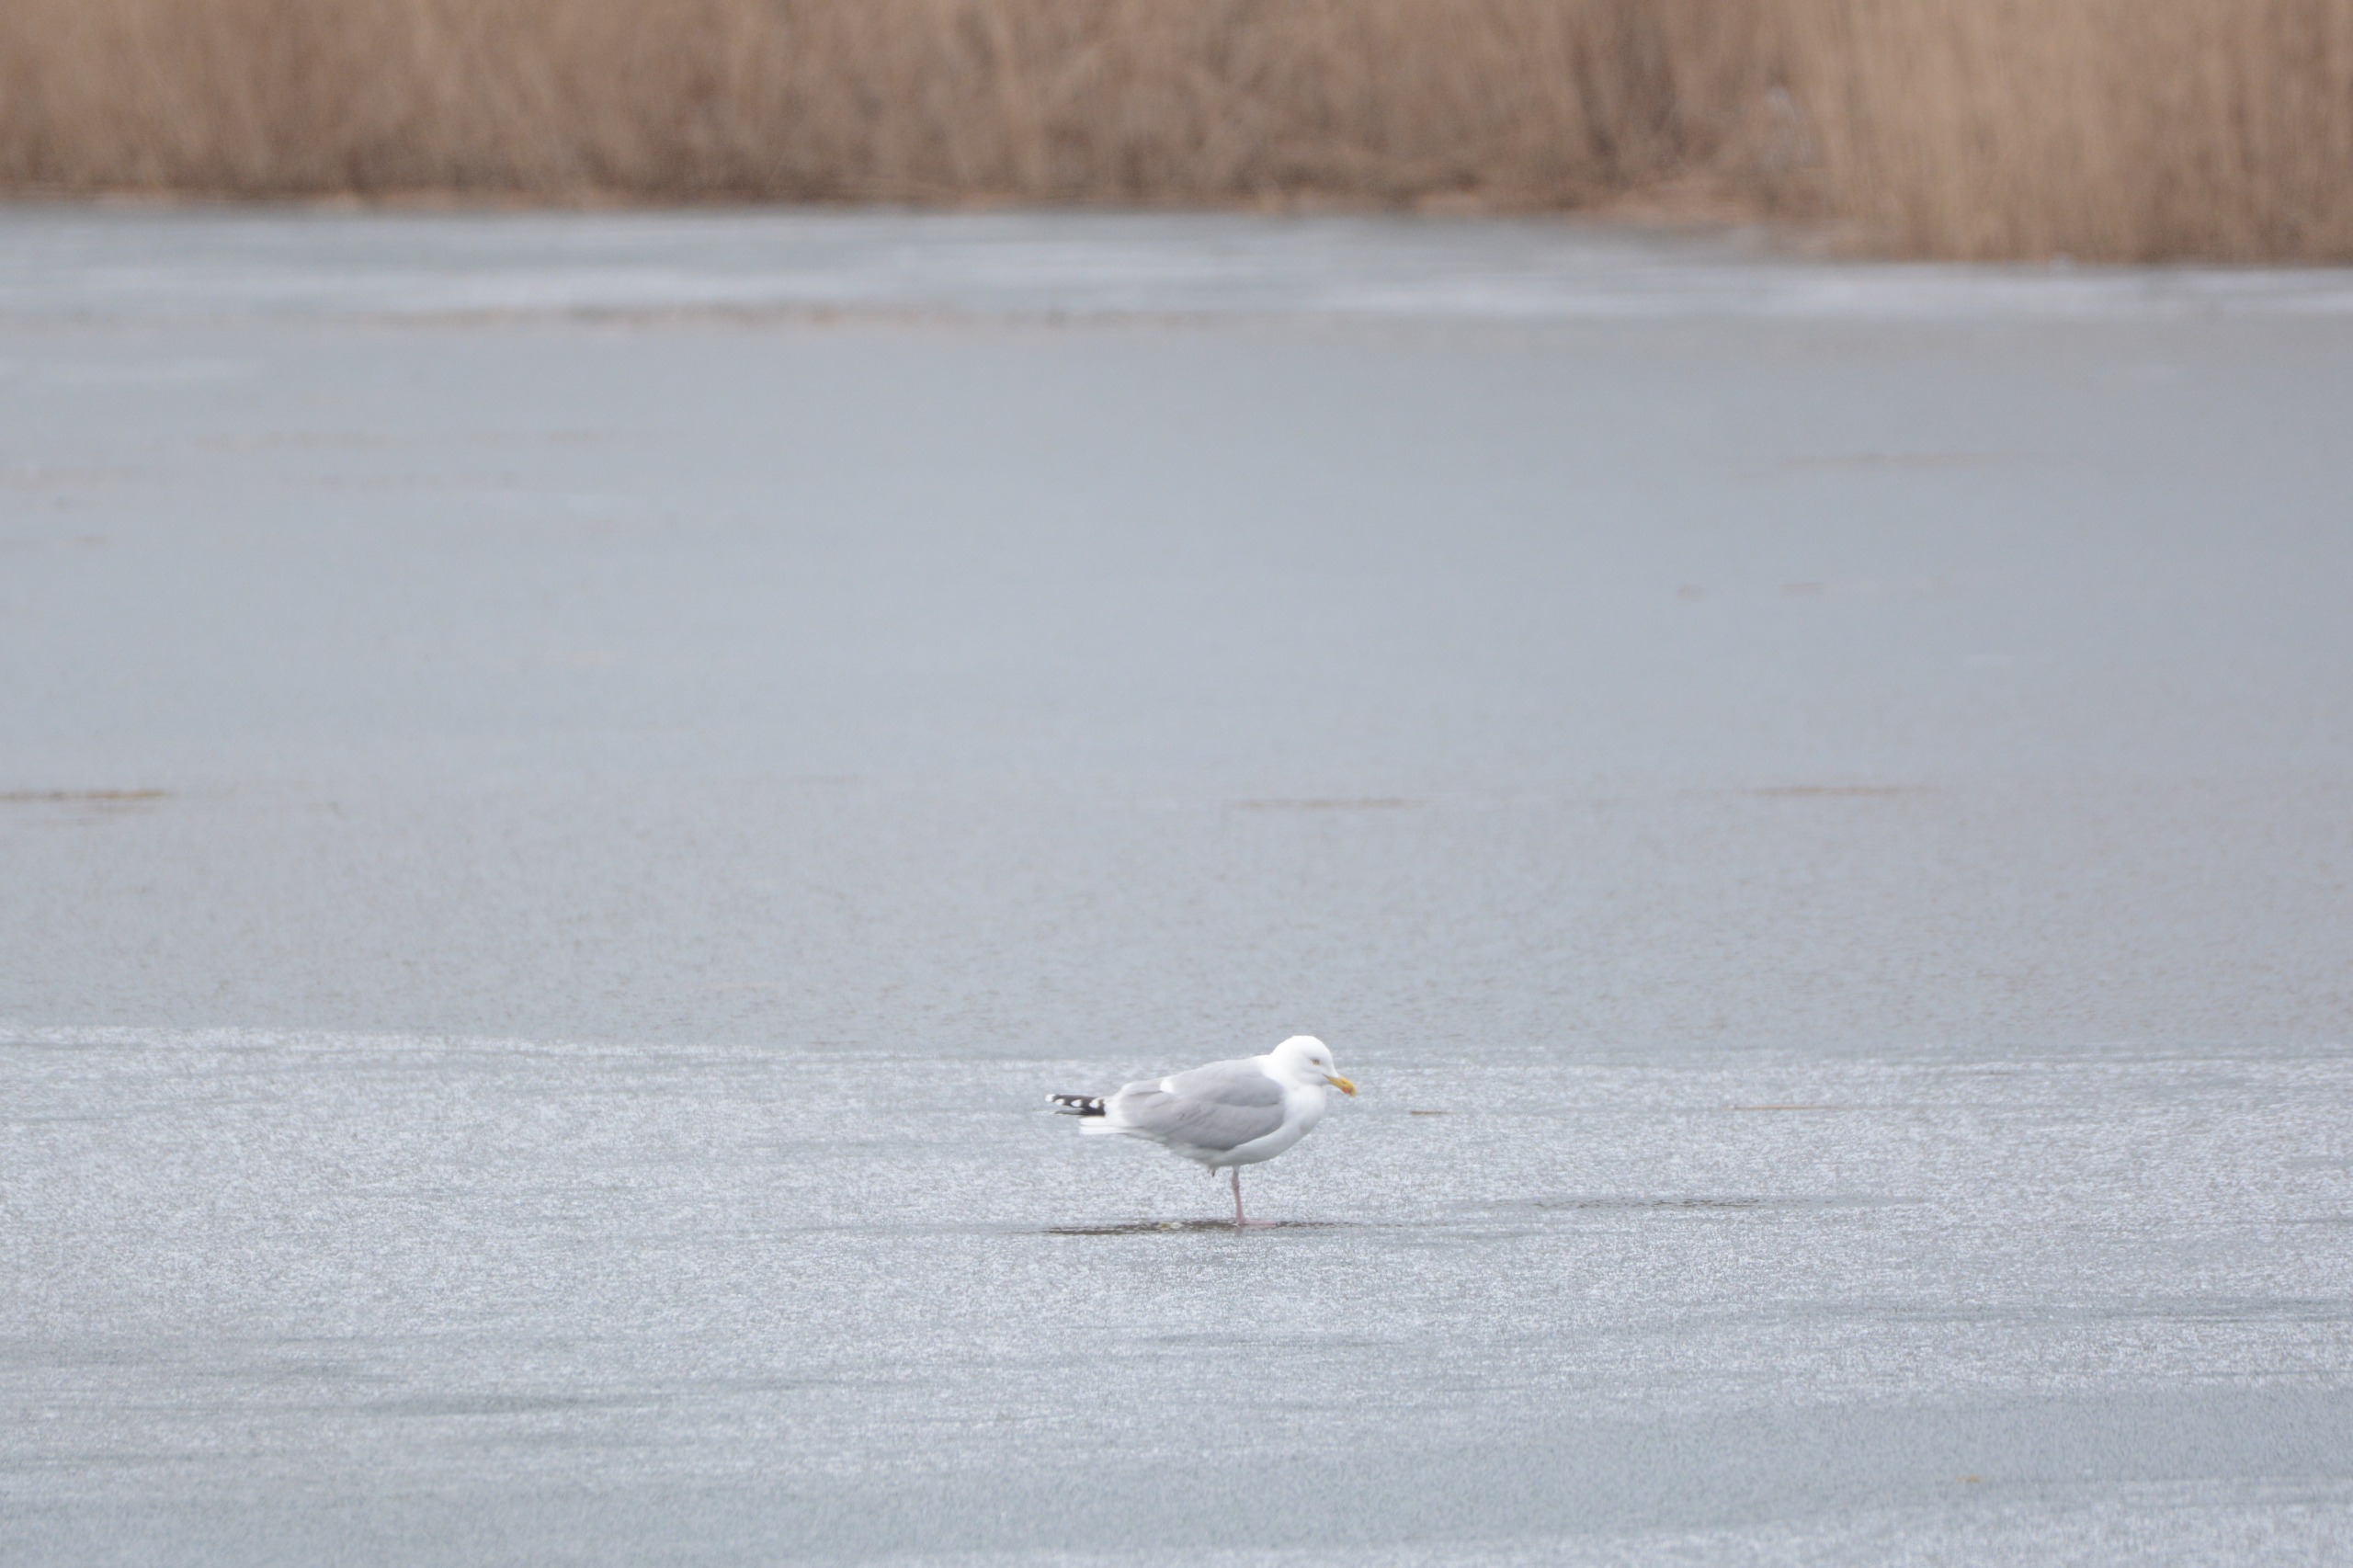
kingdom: Animalia
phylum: Chordata
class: Aves
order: Charadriiformes
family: Laridae
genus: Larus
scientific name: Larus argentatus
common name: Sølvmåge
